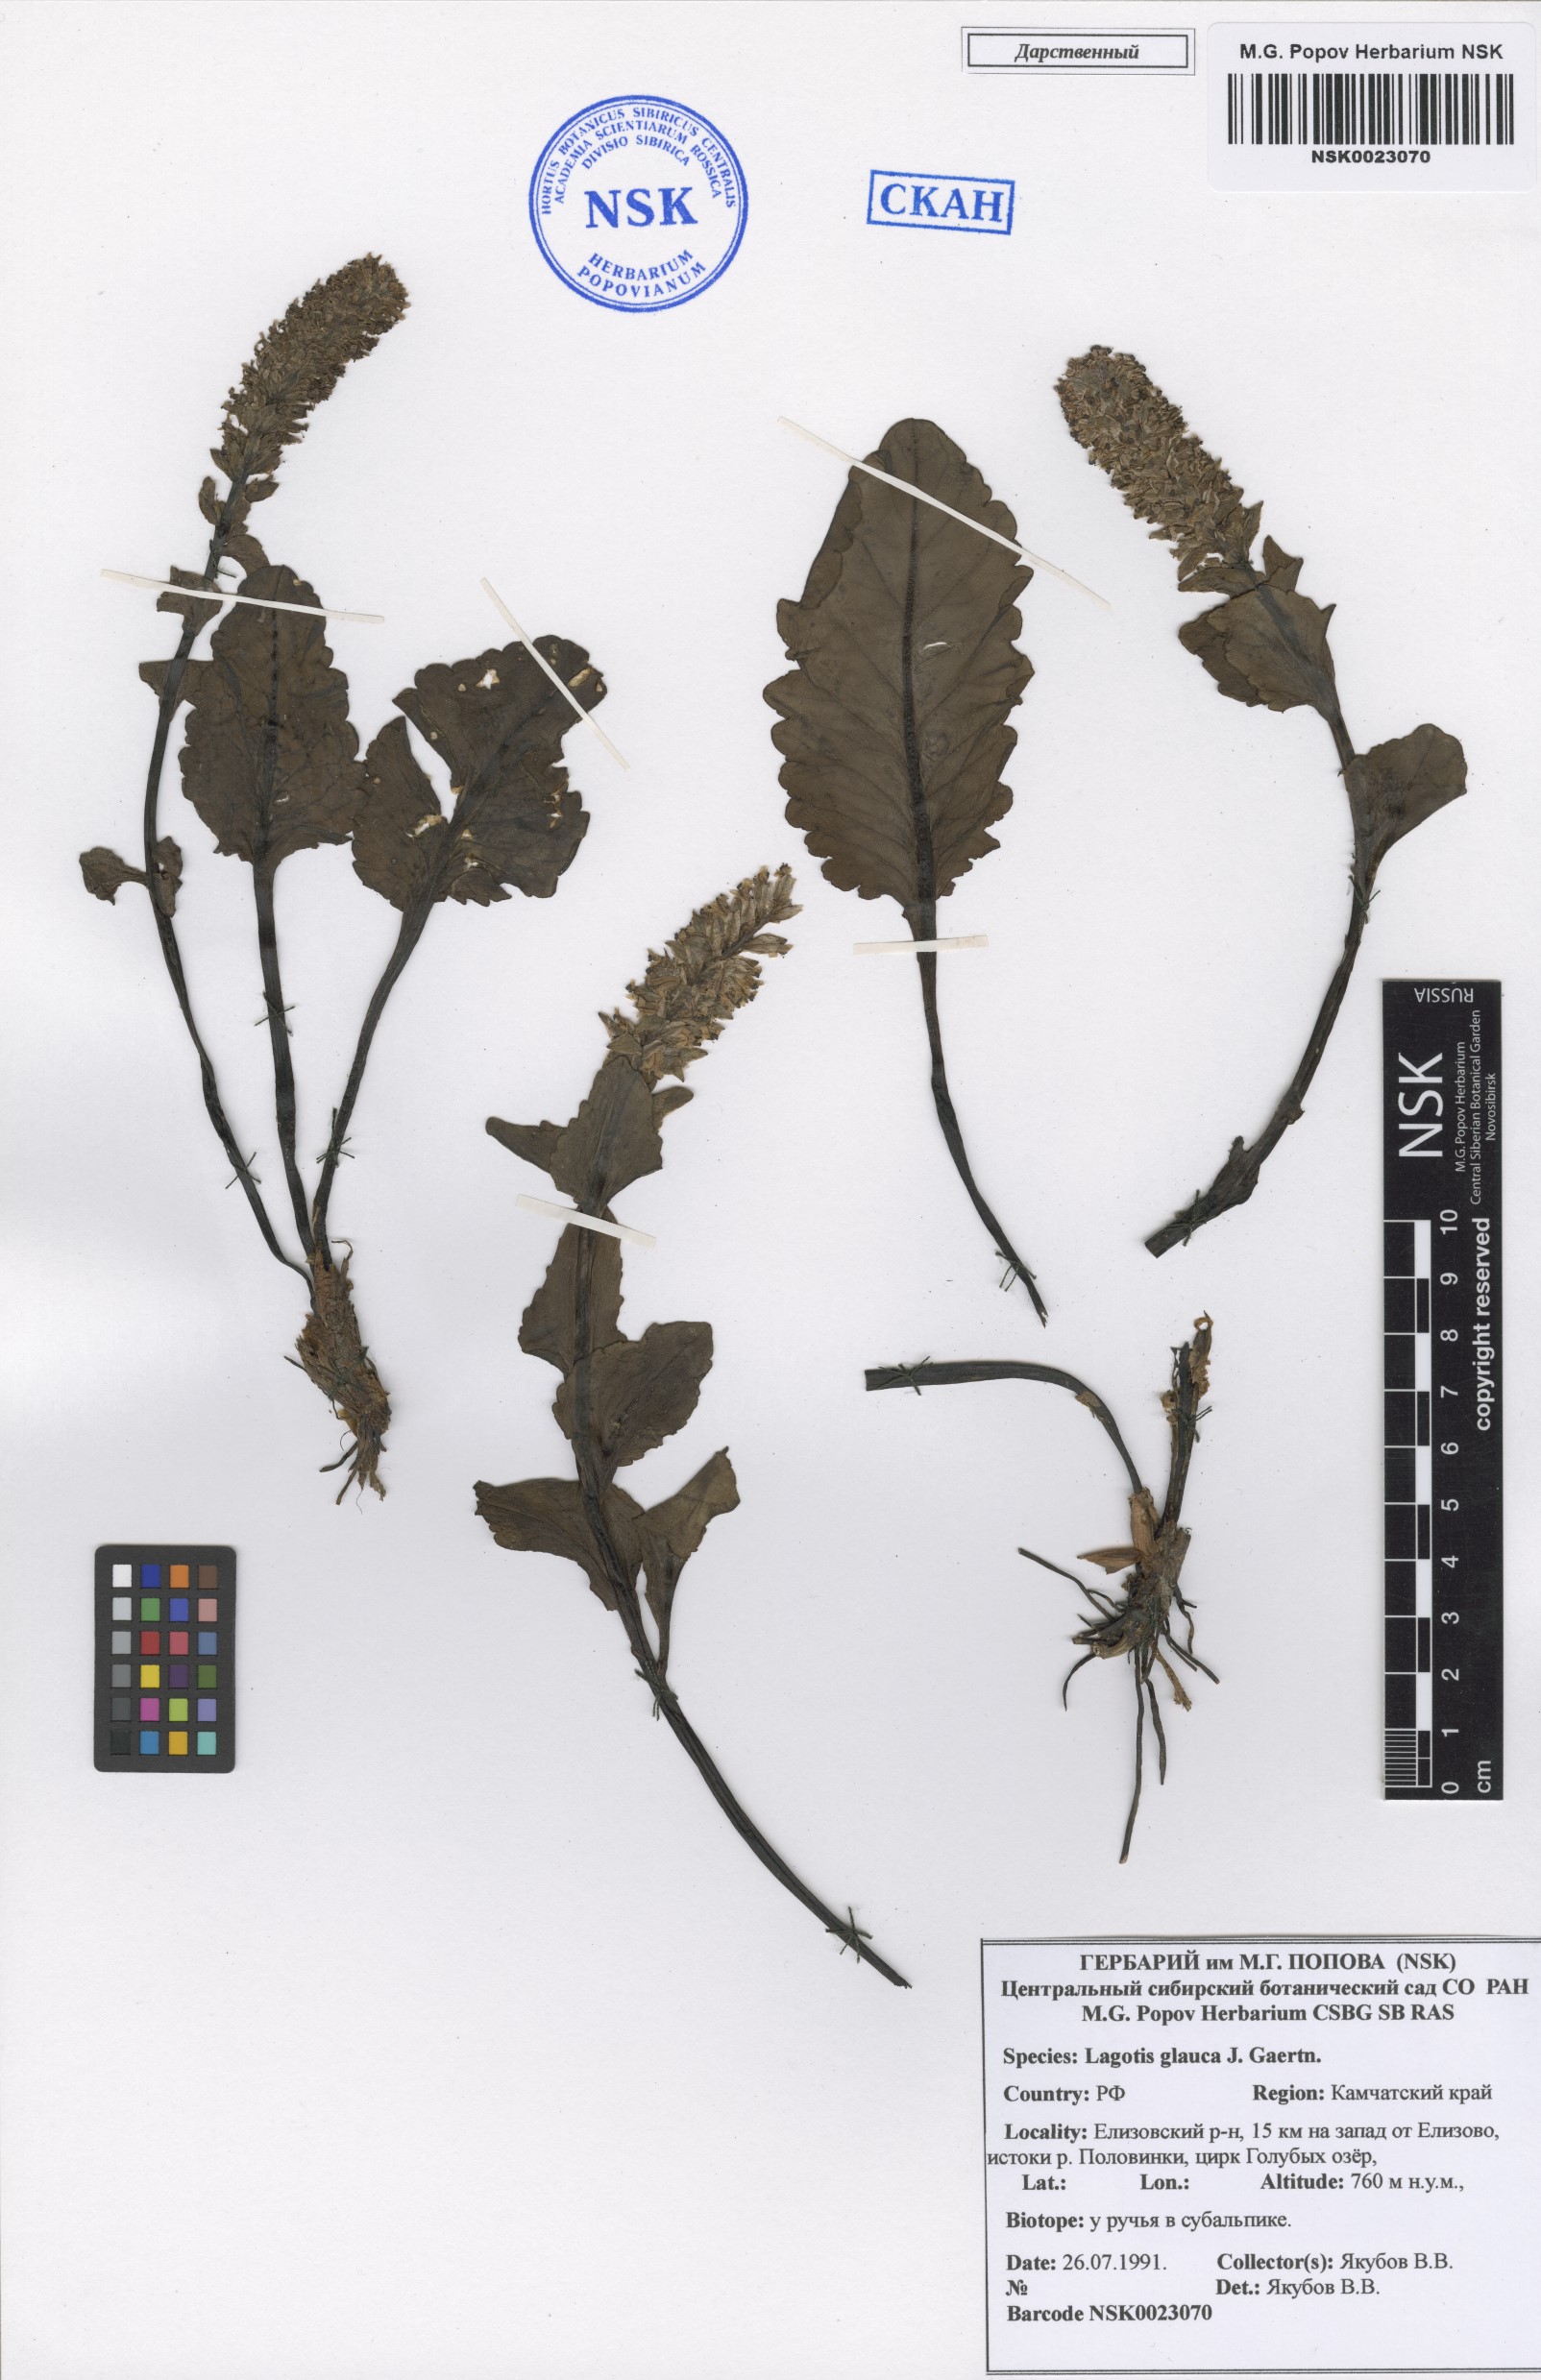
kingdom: Plantae
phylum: Tracheophyta
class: Magnoliopsida
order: Lamiales
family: Plantaginaceae
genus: Lagotis
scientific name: Lagotis glauca
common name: Glaucous weaselsnout
